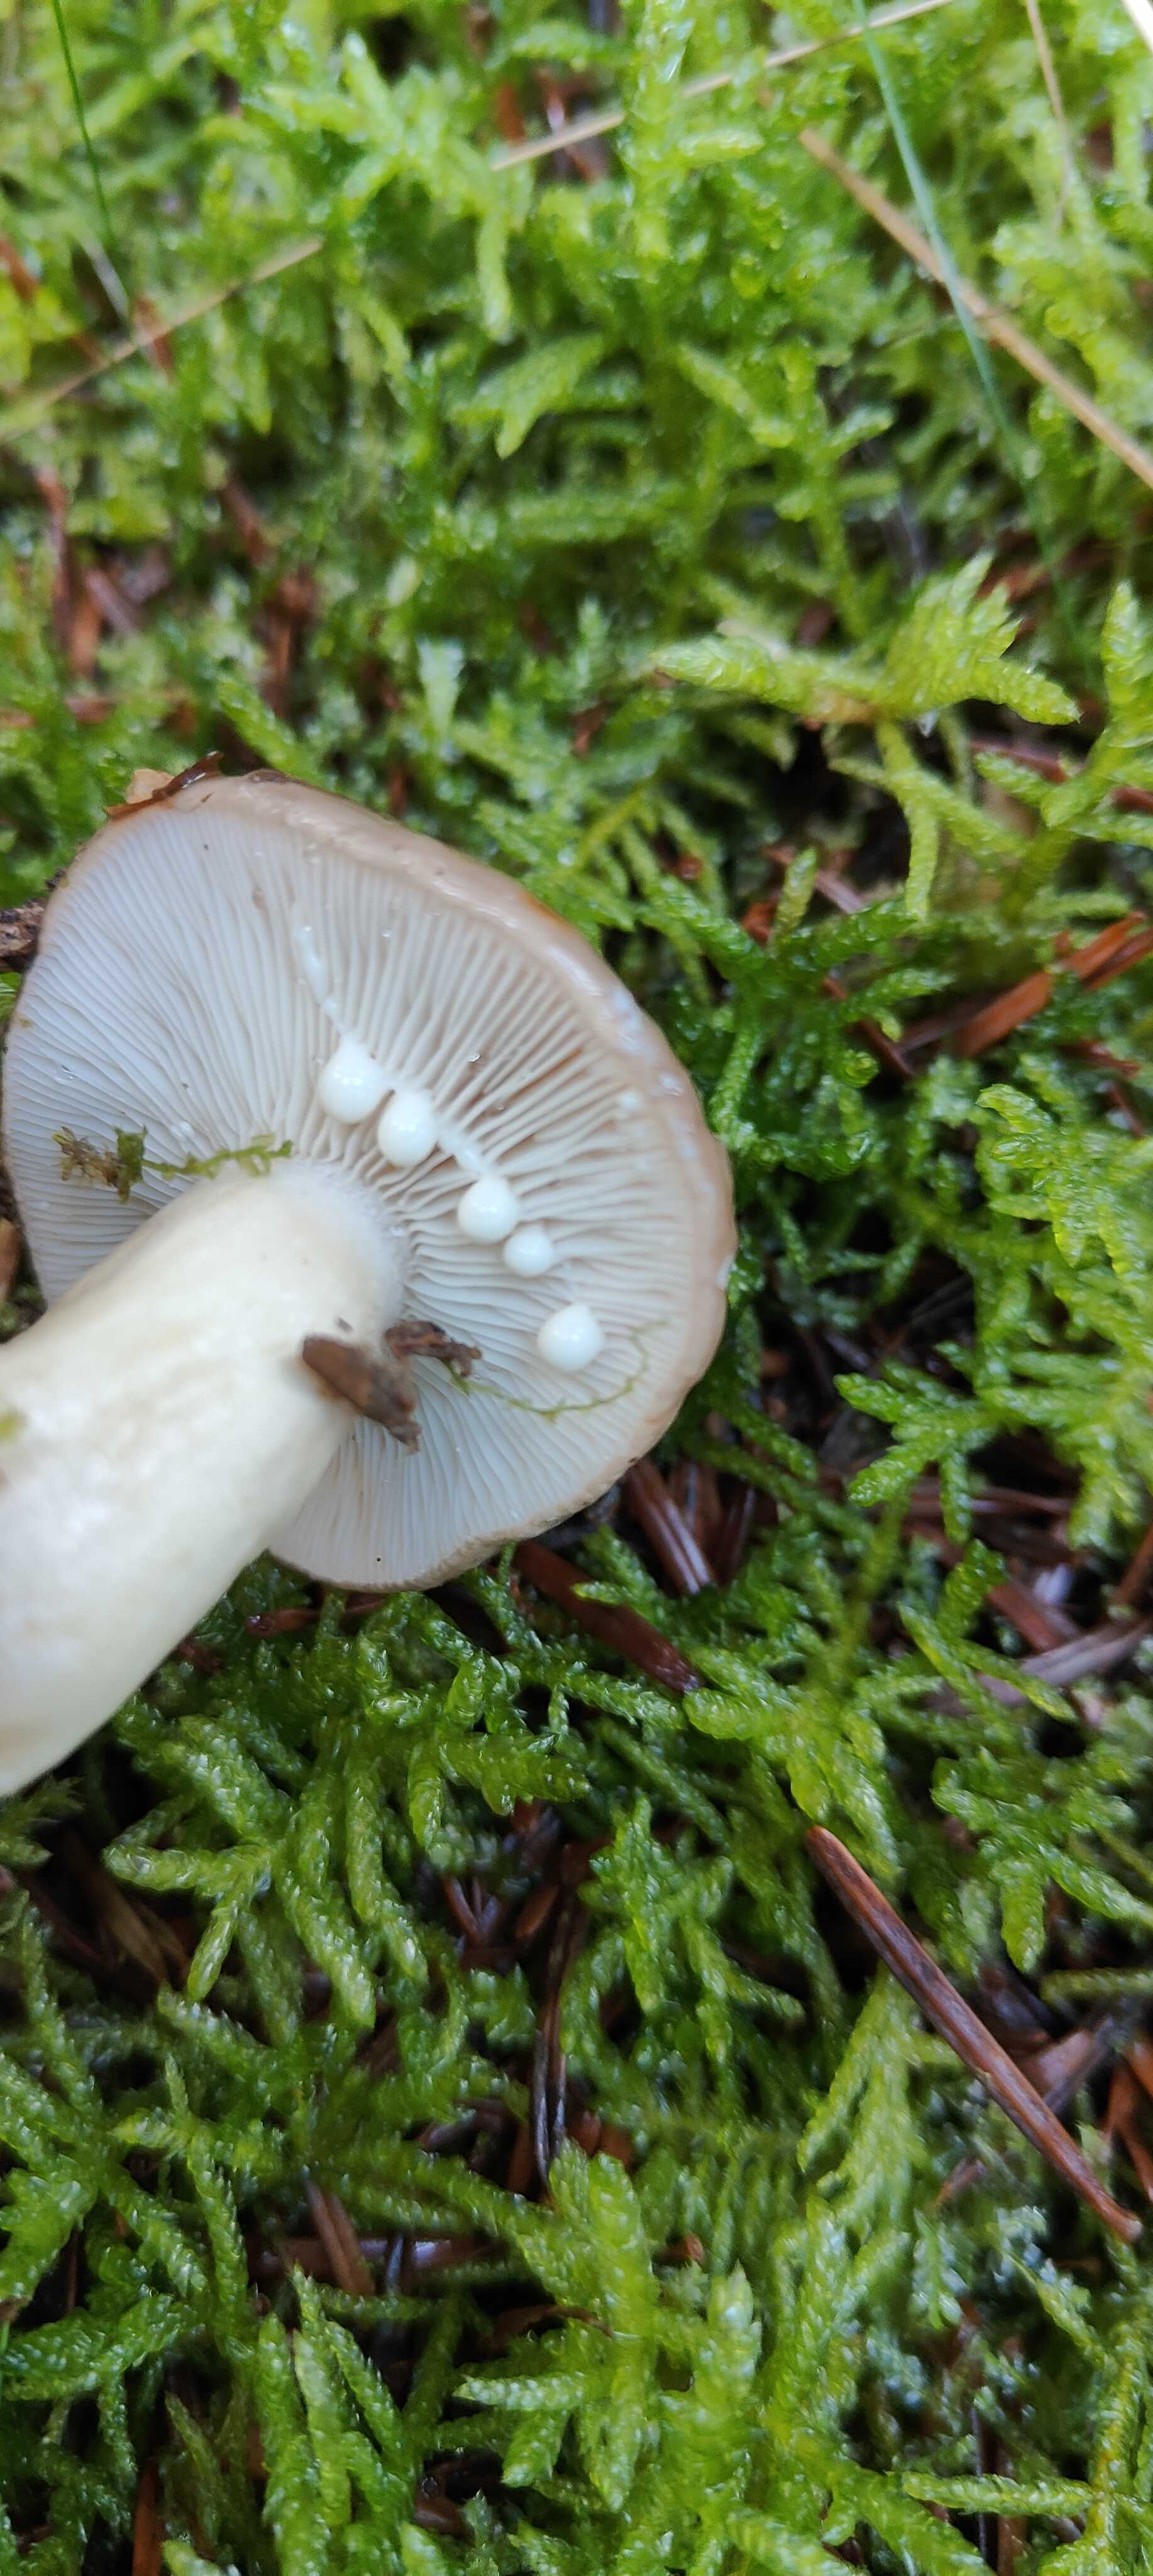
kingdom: Fungi
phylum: Basidiomycota
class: Agaricomycetes
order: Russulales
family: Russulaceae
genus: Lactarius
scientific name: Lactarius albocarneus
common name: ædelgran-mælkehat
